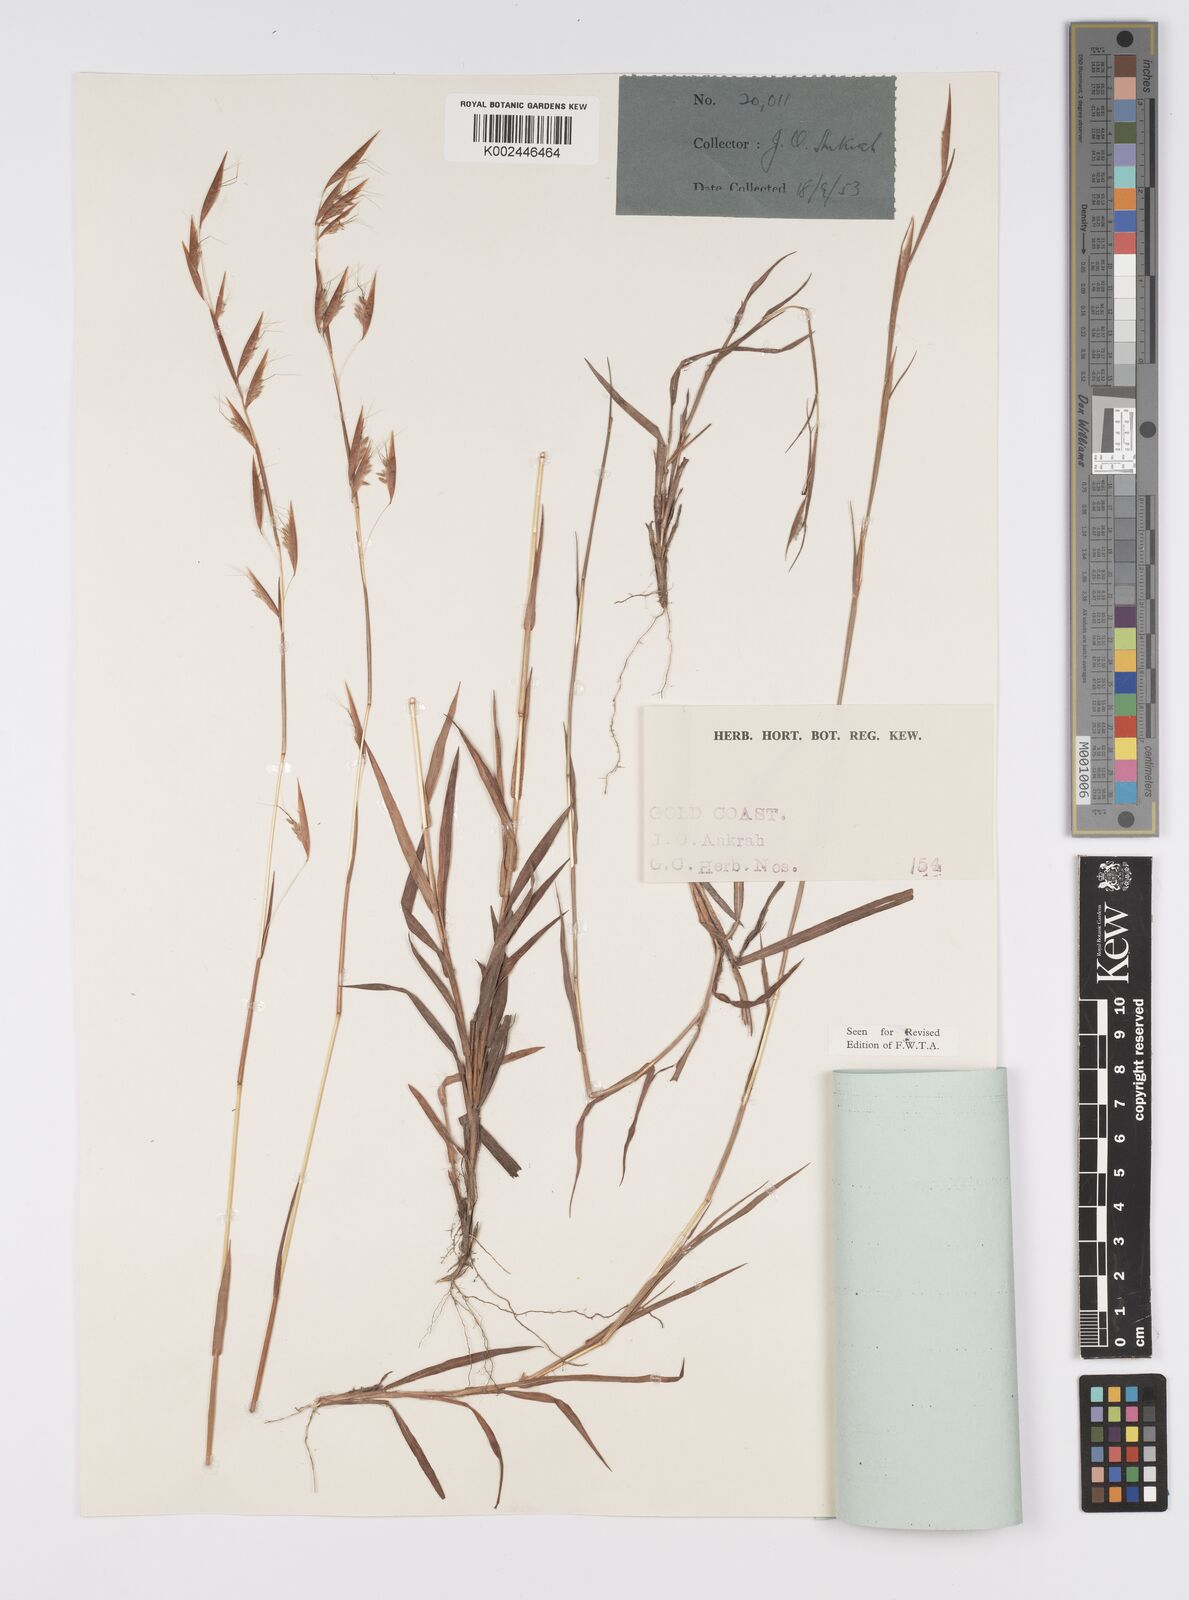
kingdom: Plantae
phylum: Tracheophyta
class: Liliopsida
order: Poales
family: Poaceae
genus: Monocymbium
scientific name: Monocymbium ceresiiforme
